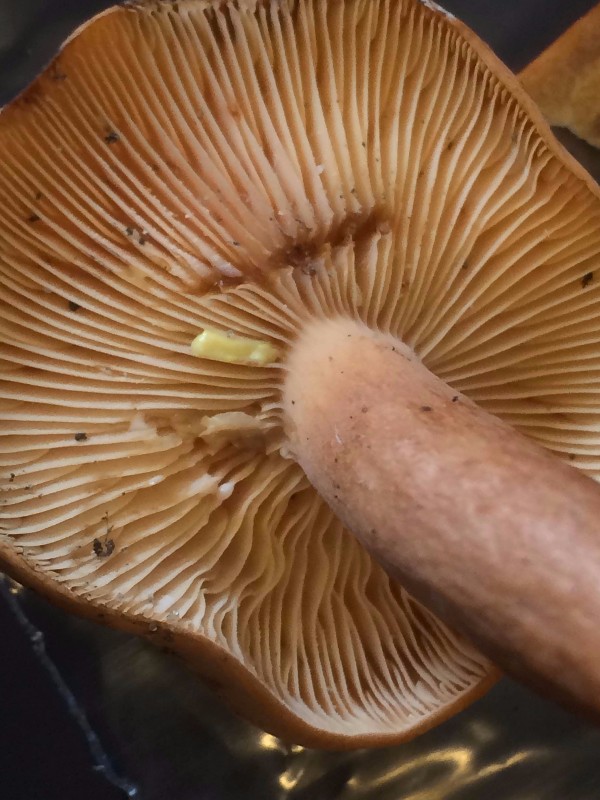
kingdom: Fungi
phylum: Basidiomycota
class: Agaricomycetes
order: Russulales
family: Russulaceae
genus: Lactarius
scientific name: Lactarius tabidus
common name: rynket mælkehat
